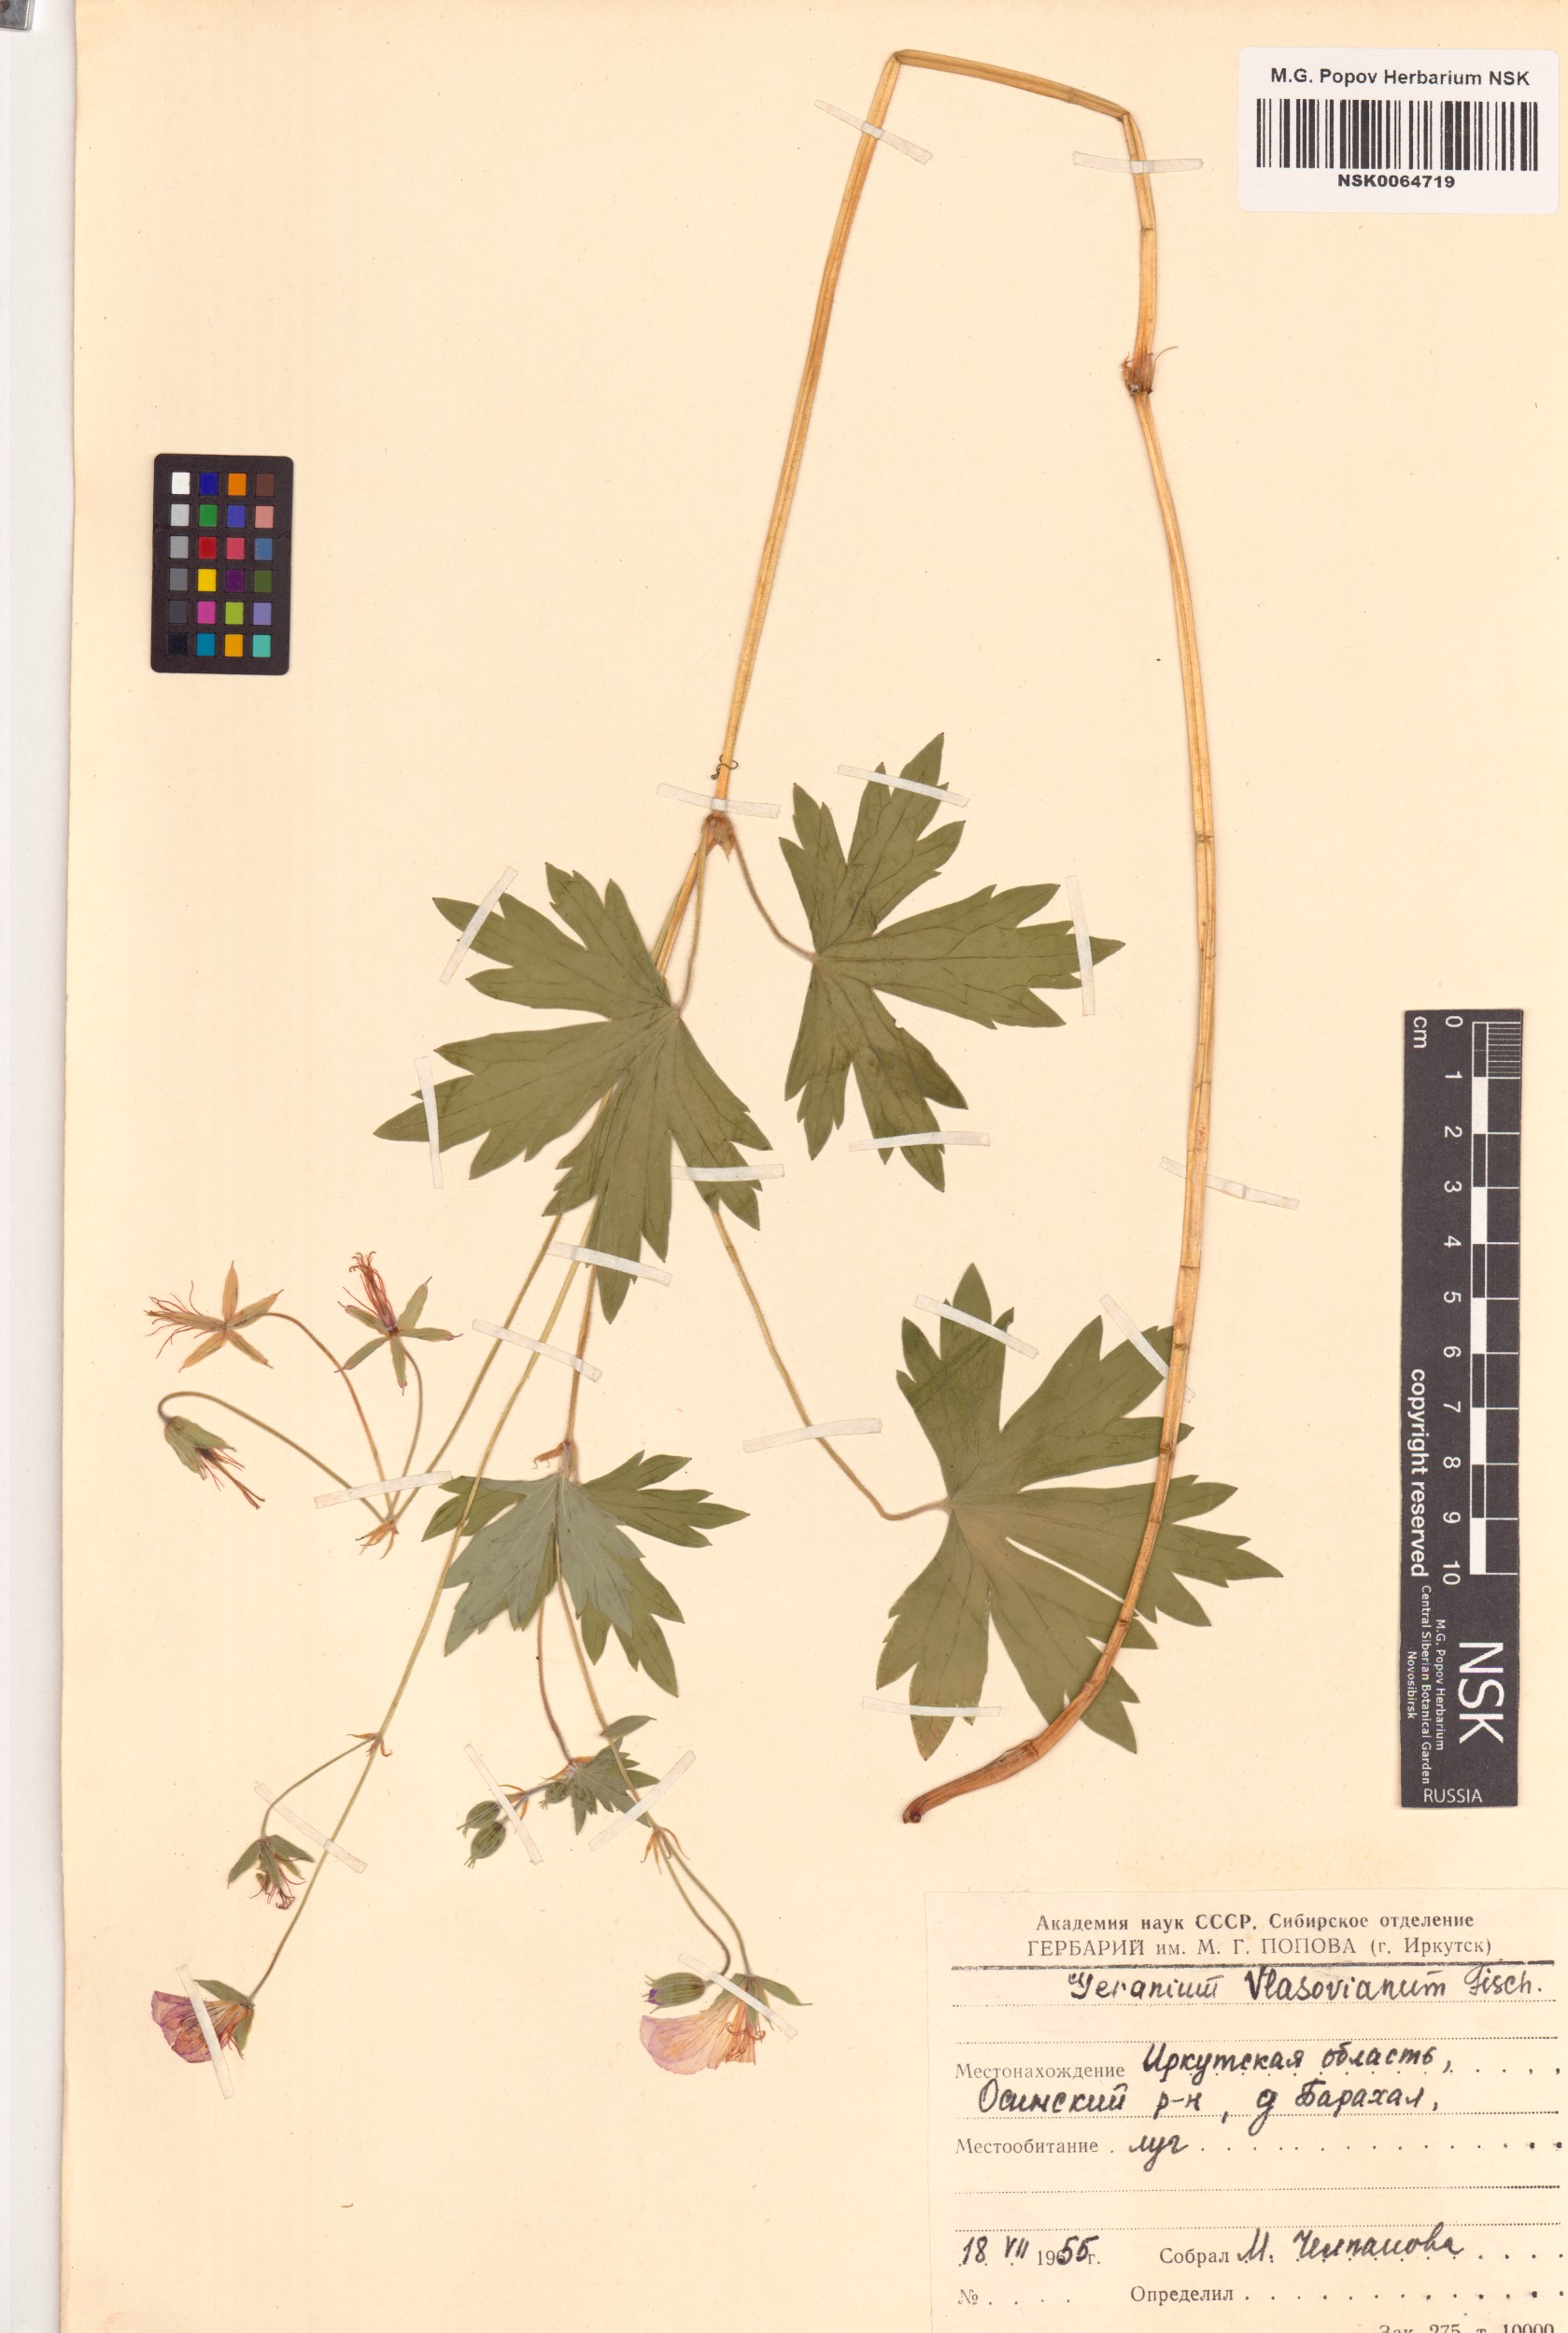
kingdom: Plantae
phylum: Tracheophyta
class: Magnoliopsida
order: Geraniales
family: Geraniaceae
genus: Geranium
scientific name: Geranium wlassovianum
